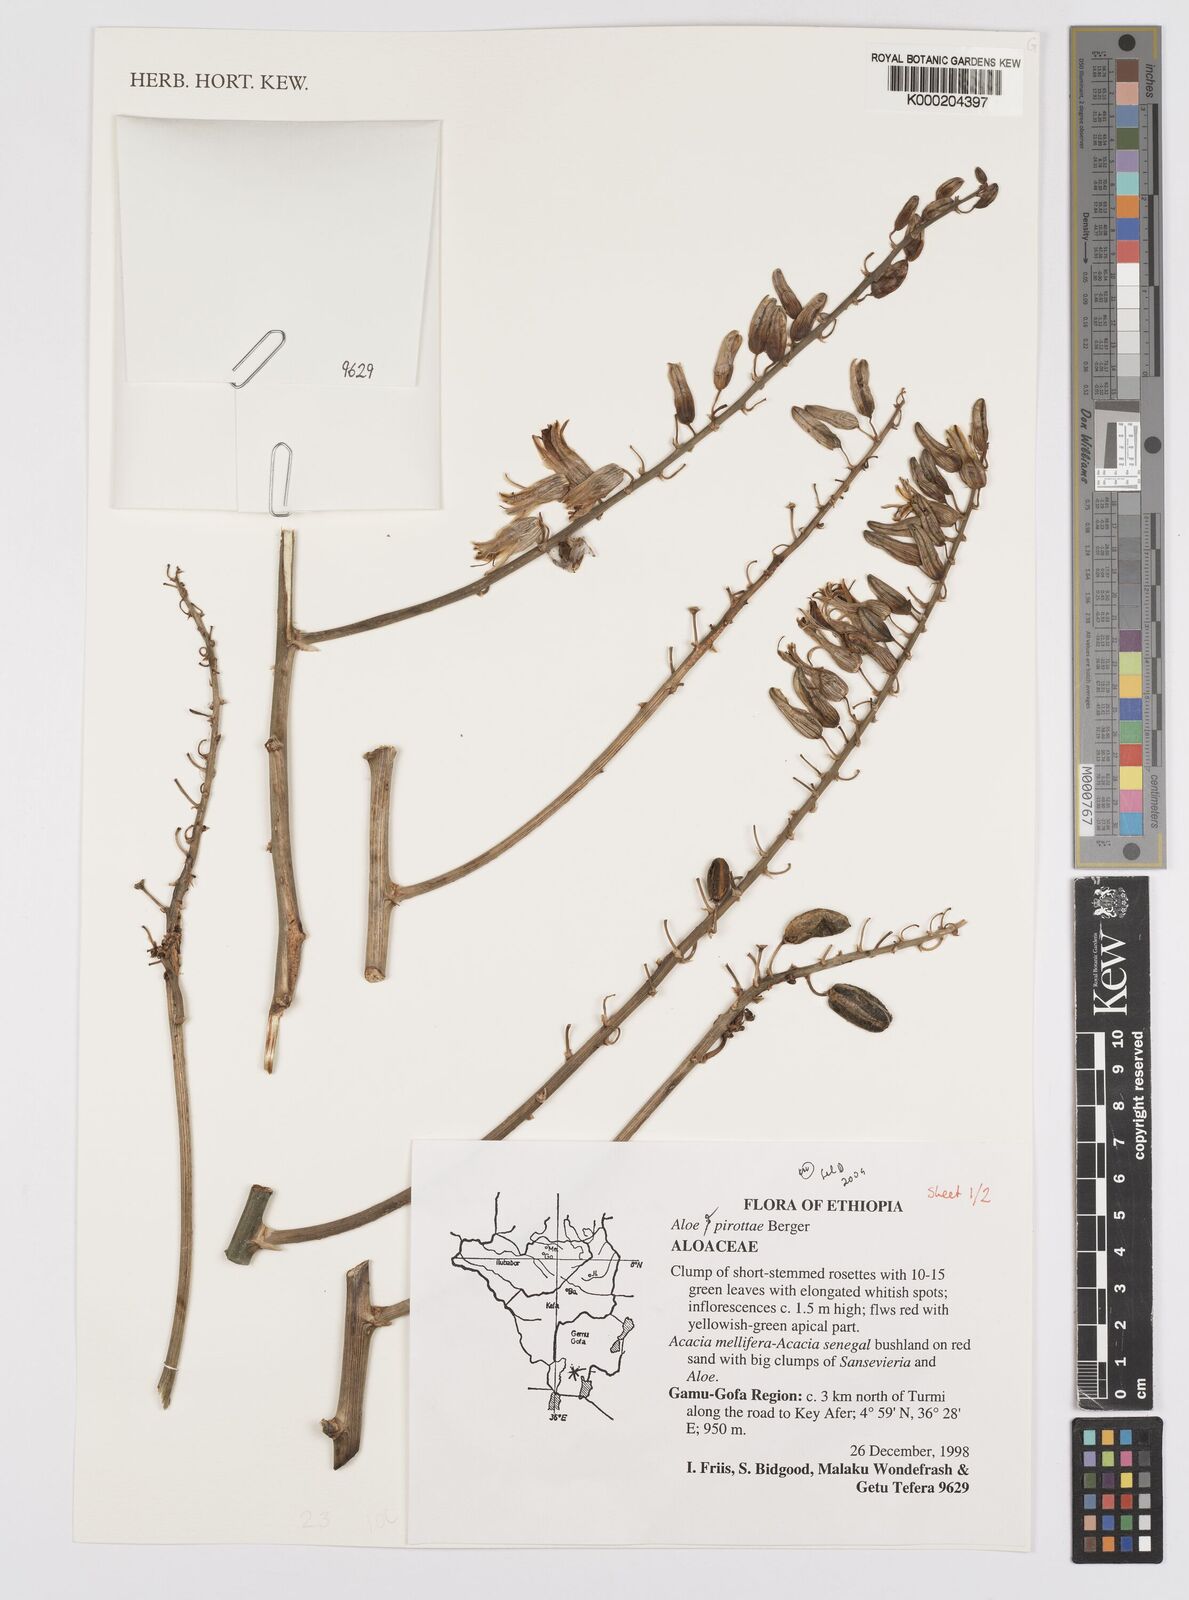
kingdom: Plantae
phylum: Tracheophyta
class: Liliopsida
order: Asparagales
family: Asphodelaceae
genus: Aloe
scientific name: Aloe pirottae
